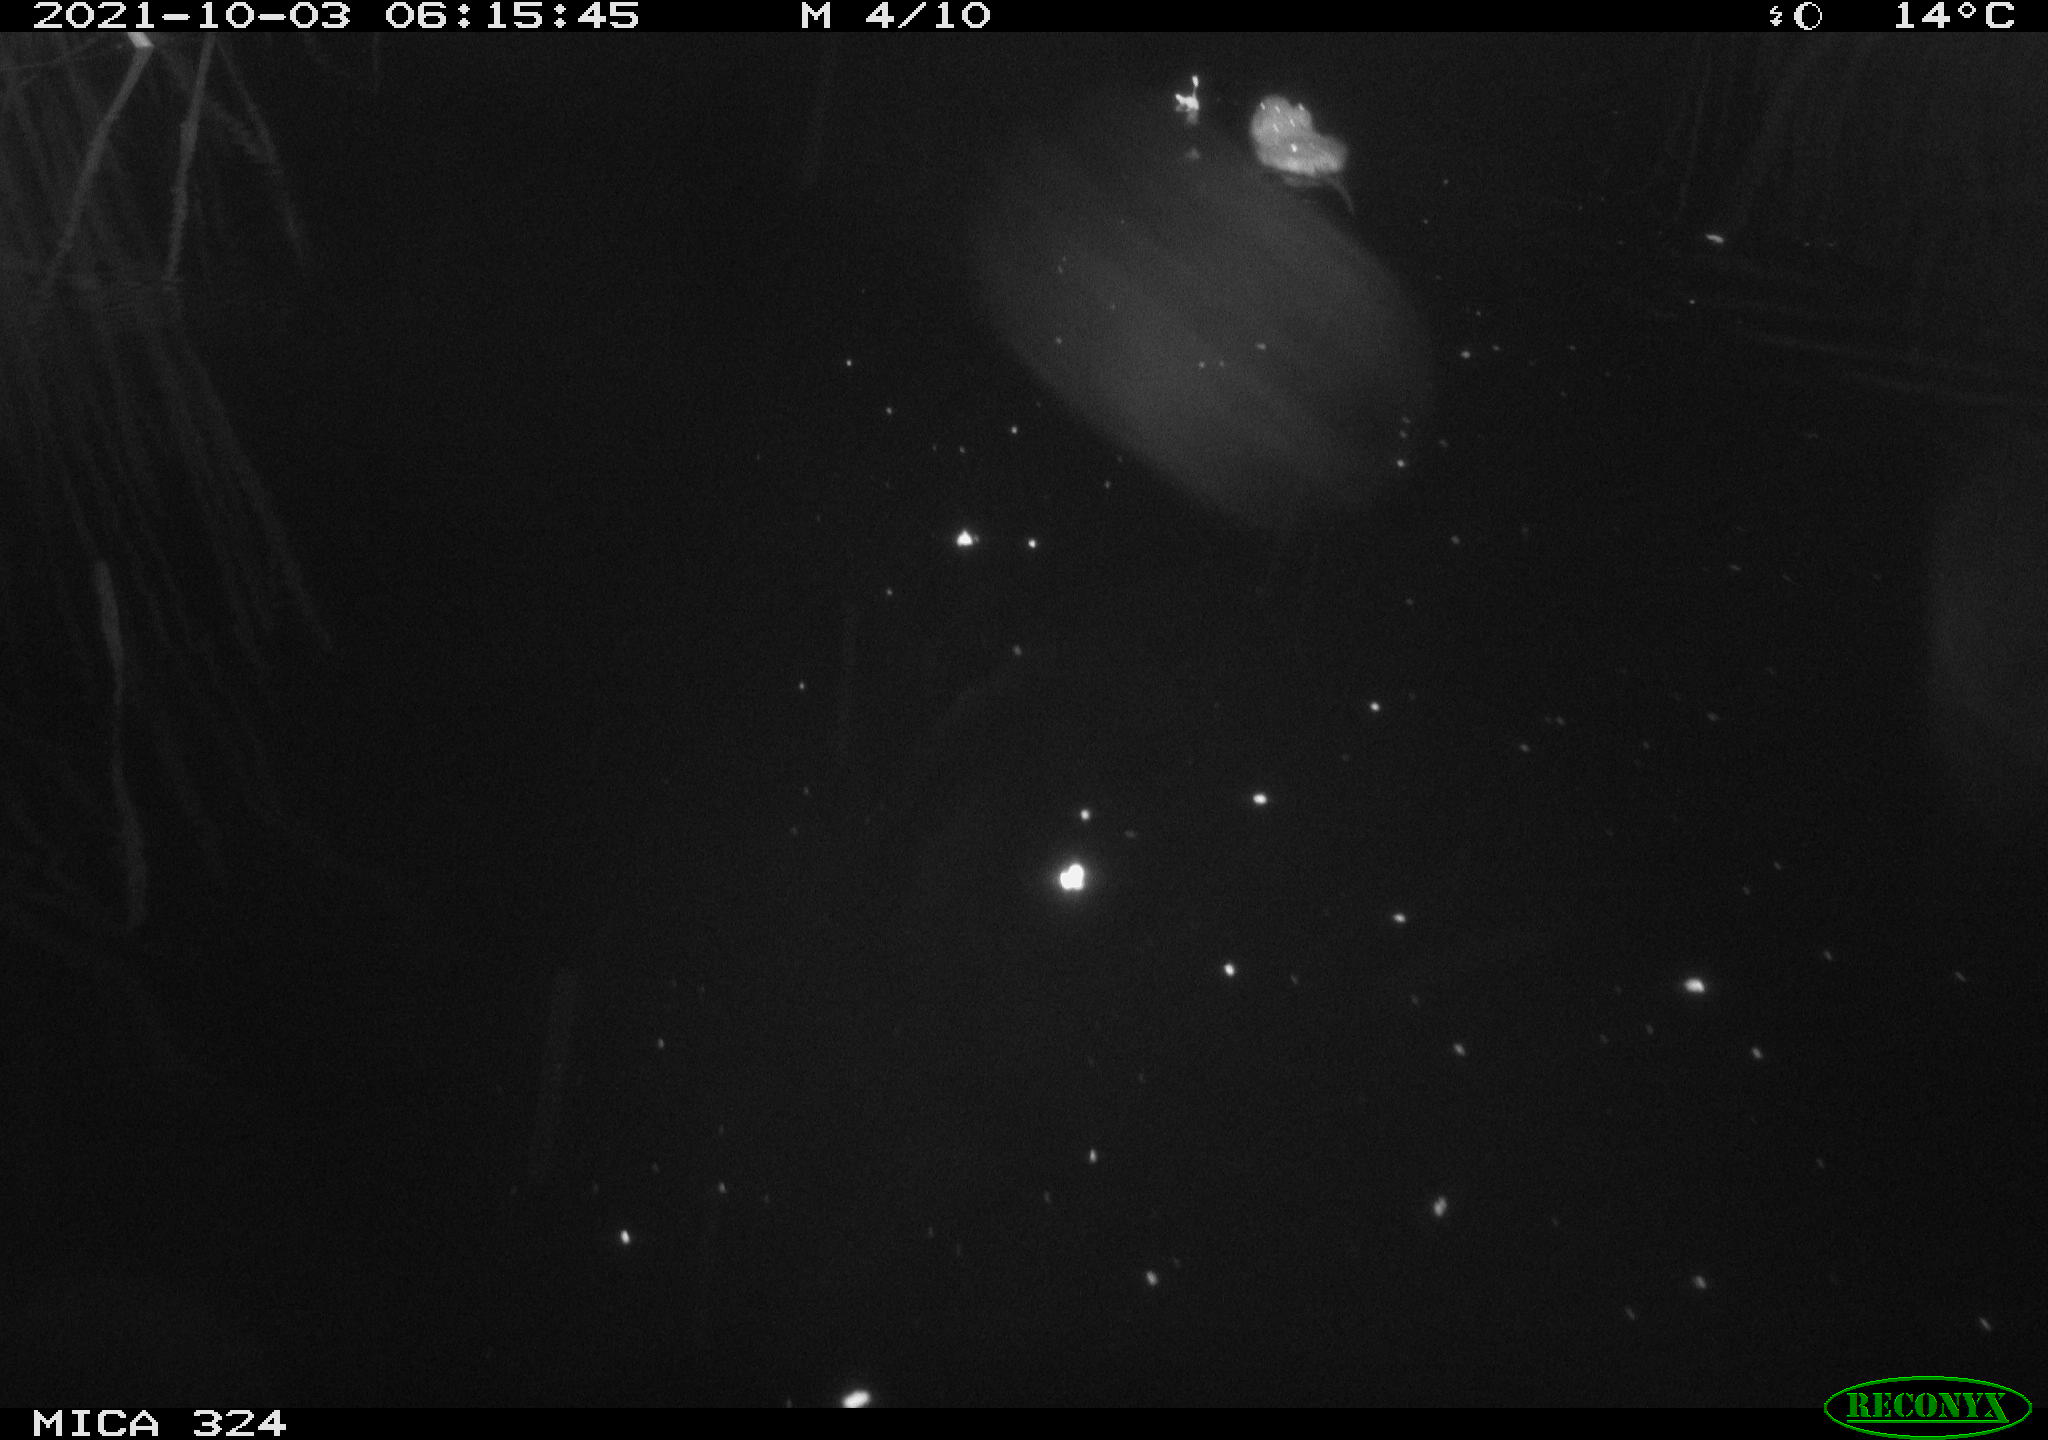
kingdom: Animalia
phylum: Chordata
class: Mammalia
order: Rodentia
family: Cricetidae
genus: Ondatra
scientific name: Ondatra zibethicus
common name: Muskrat
